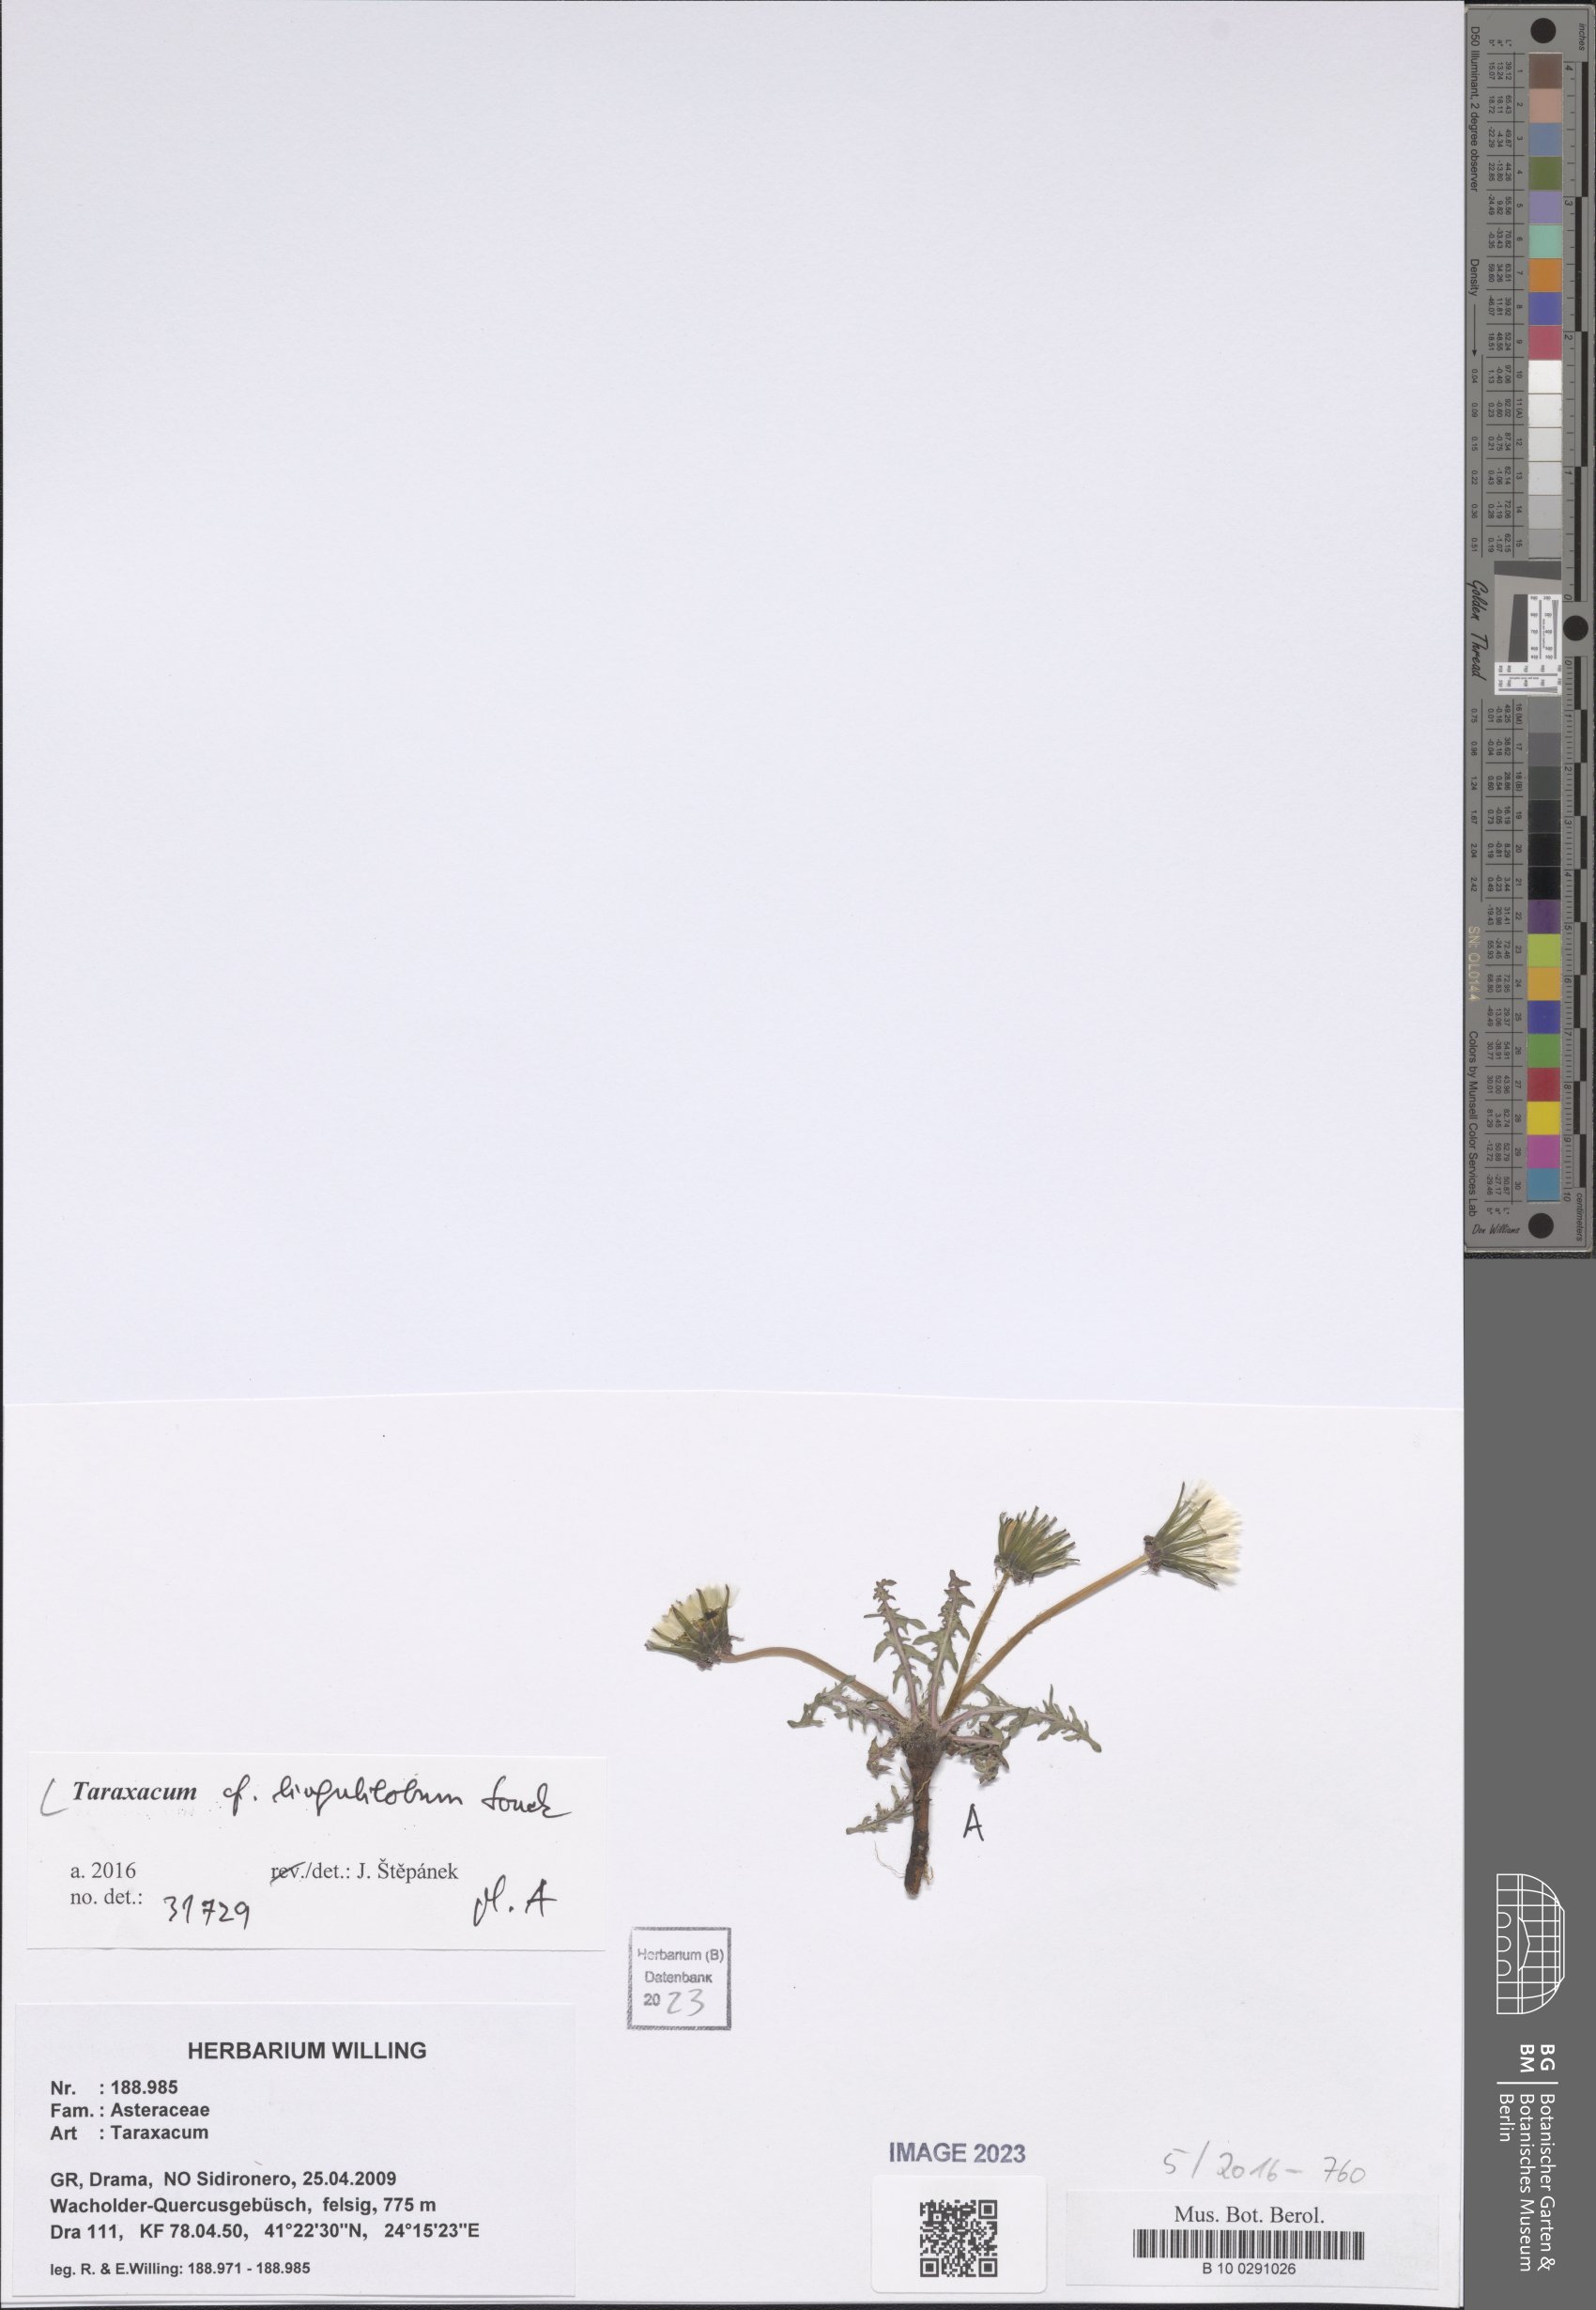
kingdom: Plantae
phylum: Tracheophyta
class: Magnoliopsida
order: Asterales
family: Asteraceae
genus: Taraxacum
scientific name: Taraxacum lingulilobum
